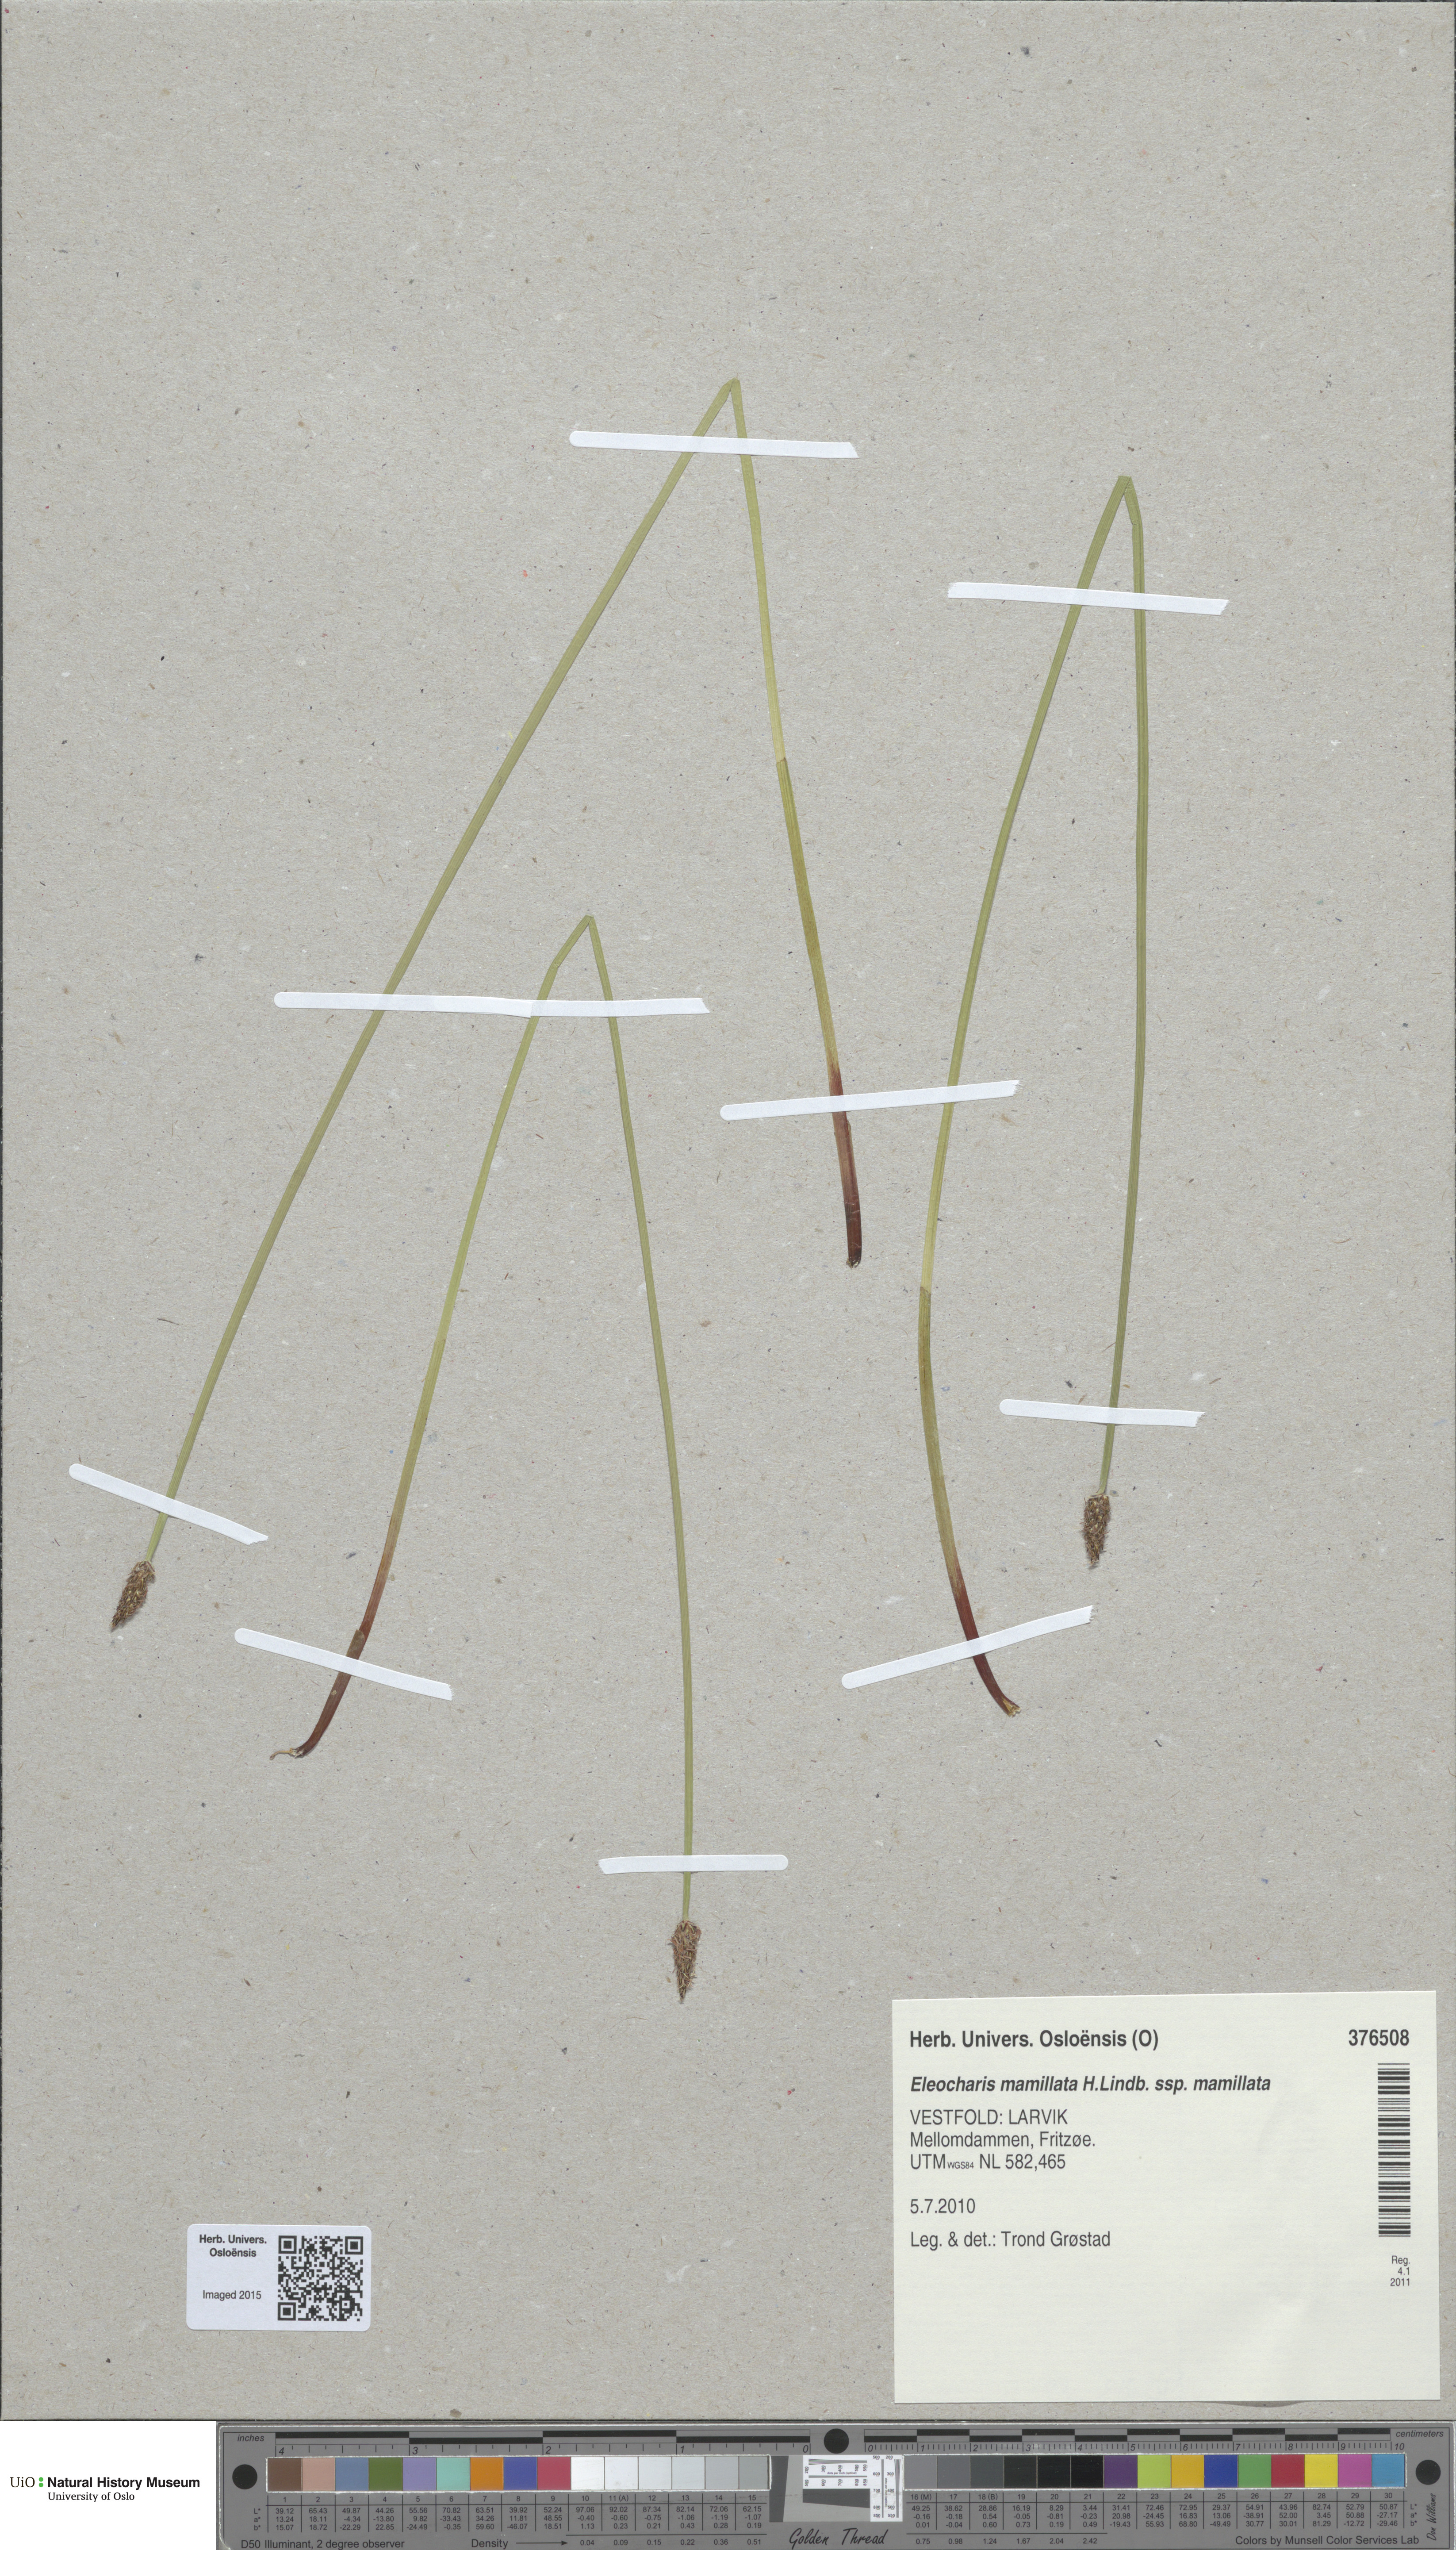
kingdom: Plantae
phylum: Tracheophyta
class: Liliopsida
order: Poales
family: Cyperaceae
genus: Eleocharis
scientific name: Eleocharis mamillata
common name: Northern spike-rush
